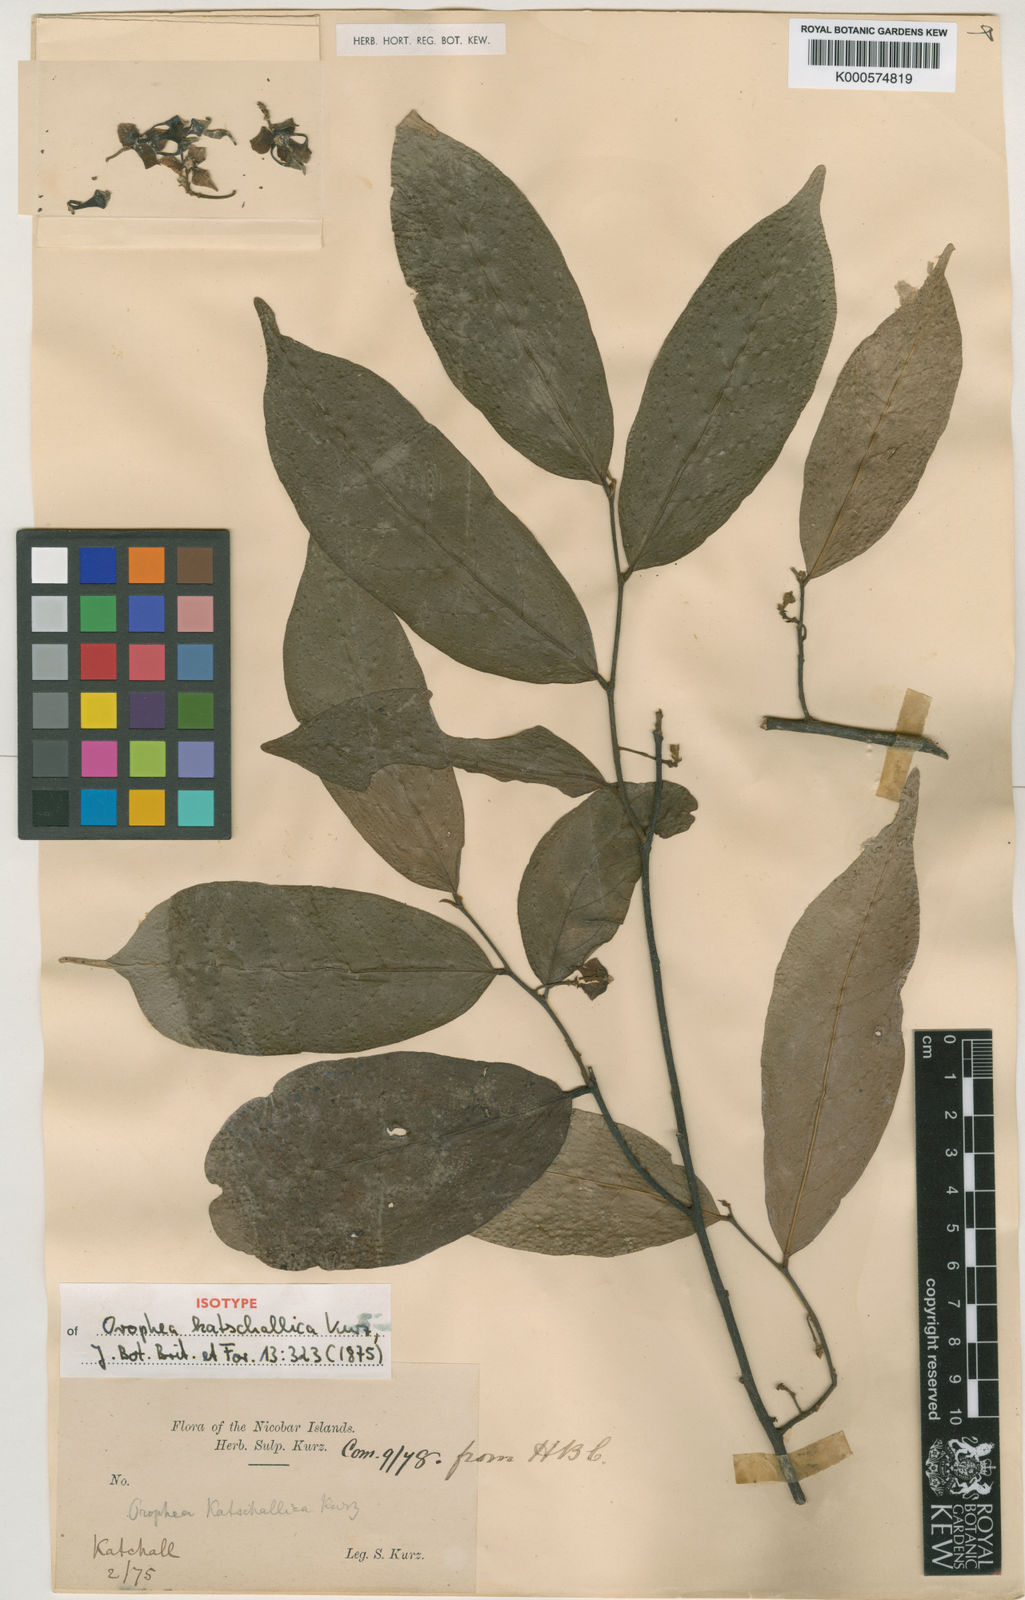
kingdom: Plantae
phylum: Tracheophyta
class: Magnoliopsida
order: Magnoliales
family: Annonaceae
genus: Orophea
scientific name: Orophea katschallica
